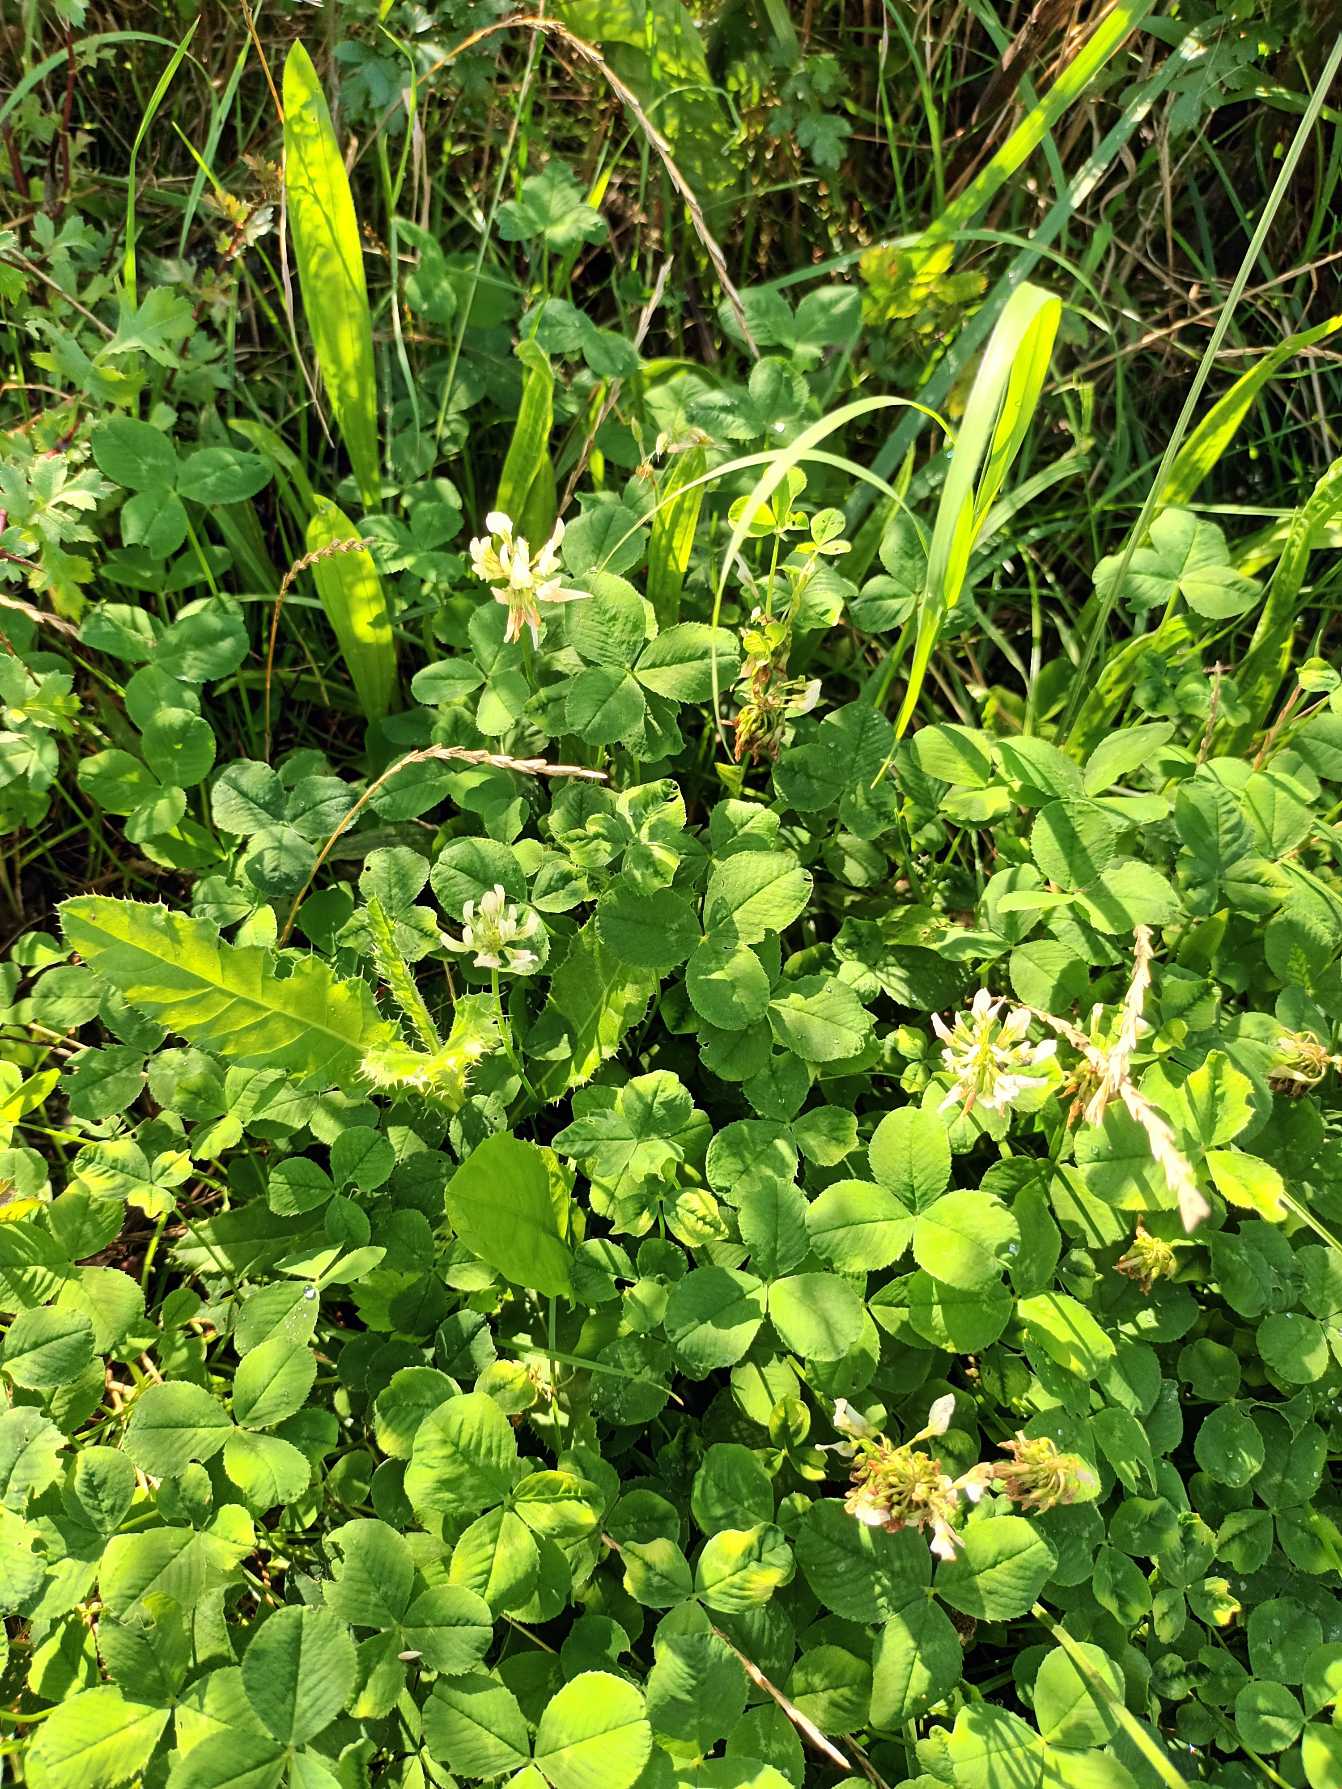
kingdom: Plantae
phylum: Tracheophyta
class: Magnoliopsida
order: Fabales
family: Fabaceae
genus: Trifolium
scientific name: Trifolium repens
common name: Hvid-kløver
